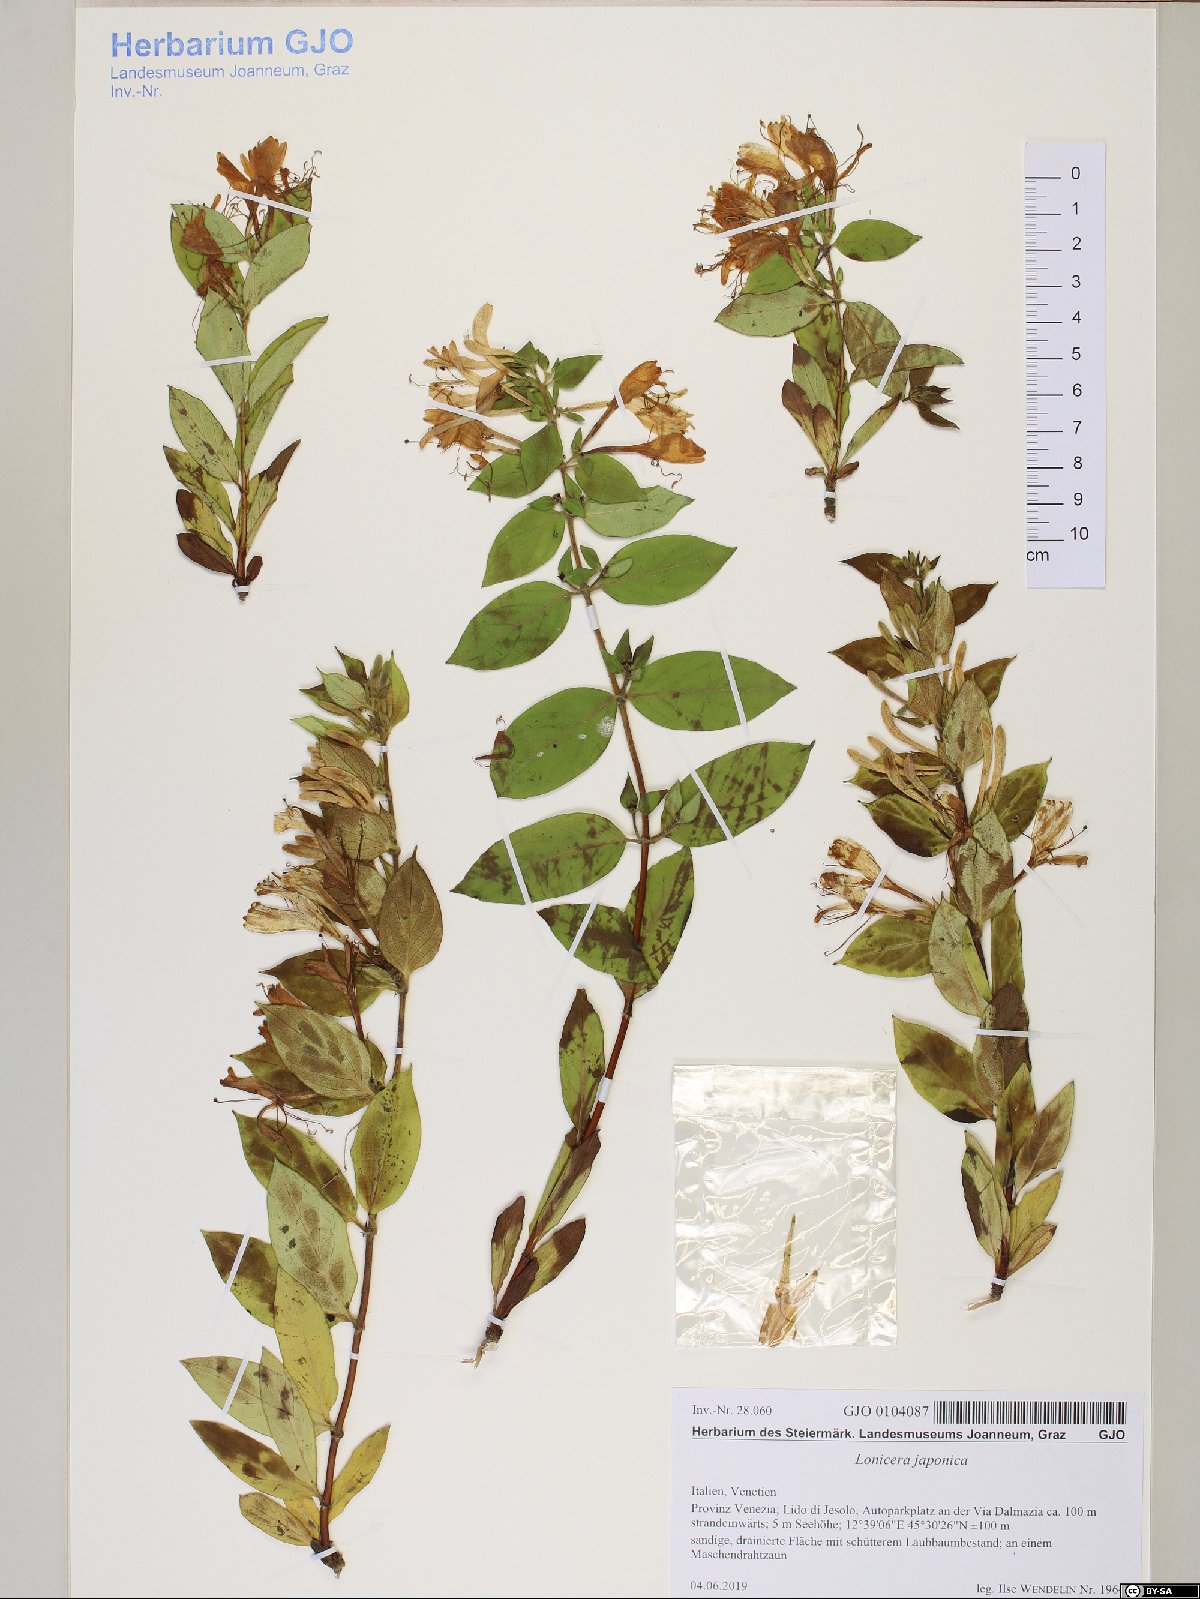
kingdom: Plantae
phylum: Tracheophyta
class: Magnoliopsida
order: Dipsacales
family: Caprifoliaceae
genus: Lonicera
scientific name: Lonicera japonica
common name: Japanese honeysuckle
